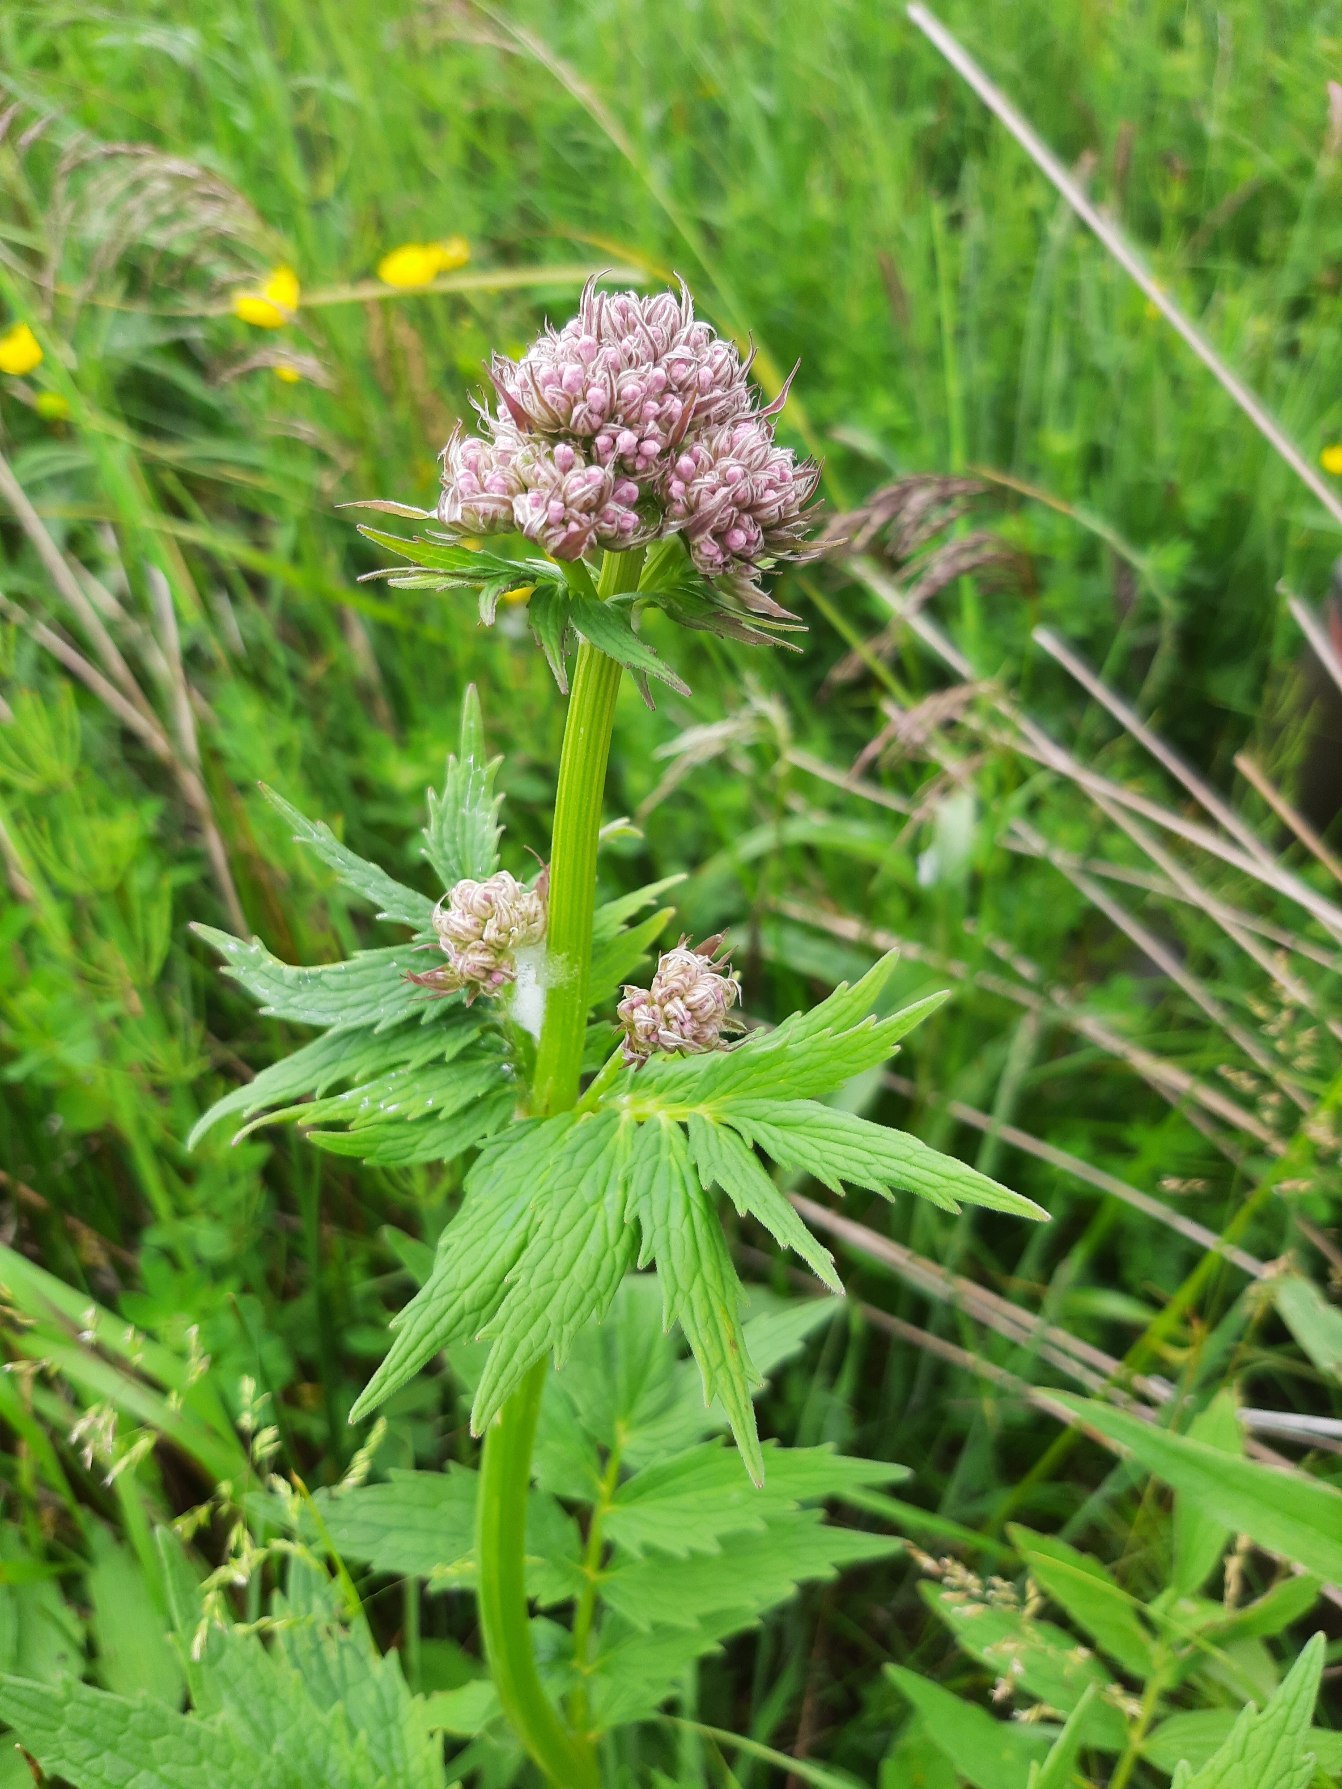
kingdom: Plantae
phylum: Tracheophyta
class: Magnoliopsida
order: Dipsacales
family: Caprifoliaceae
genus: Valeriana
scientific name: Valeriana sambucifolia
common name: Hyldebladet baldrian
